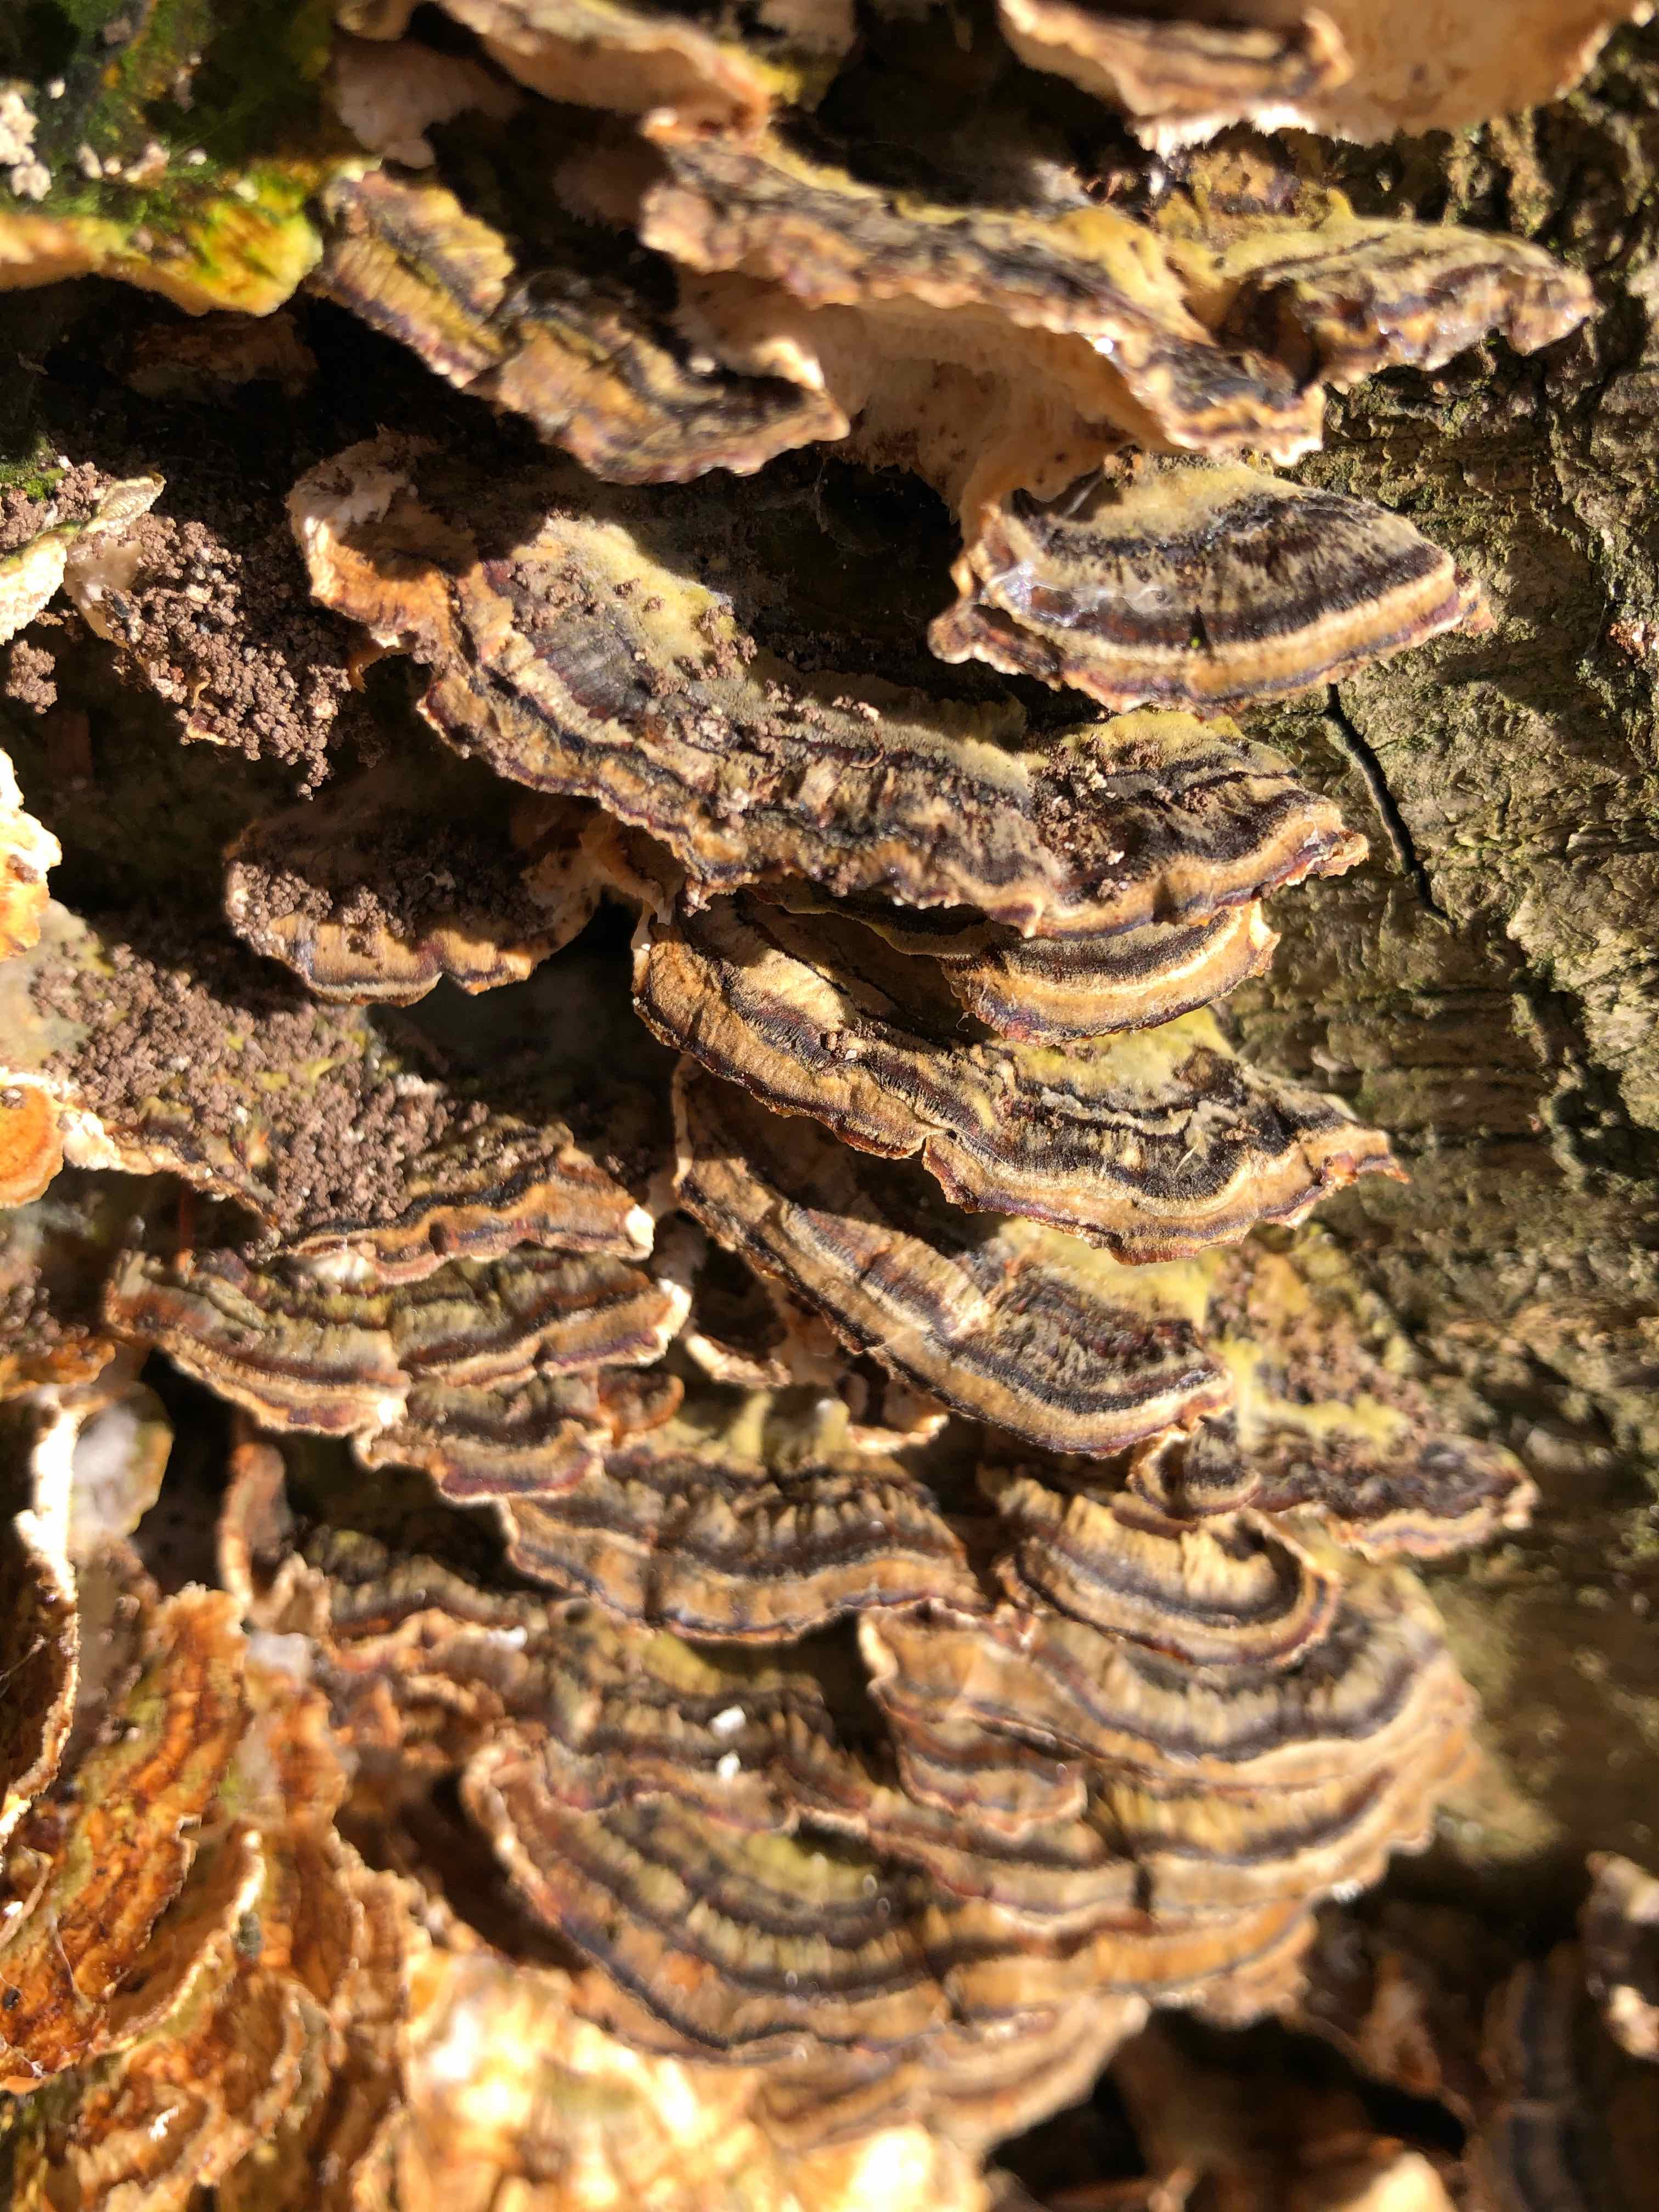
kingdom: Fungi
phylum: Basidiomycota
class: Agaricomycetes
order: Polyporales
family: Polyporaceae
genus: Trametes
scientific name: Trametes versicolor
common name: broget læderporesvamp
